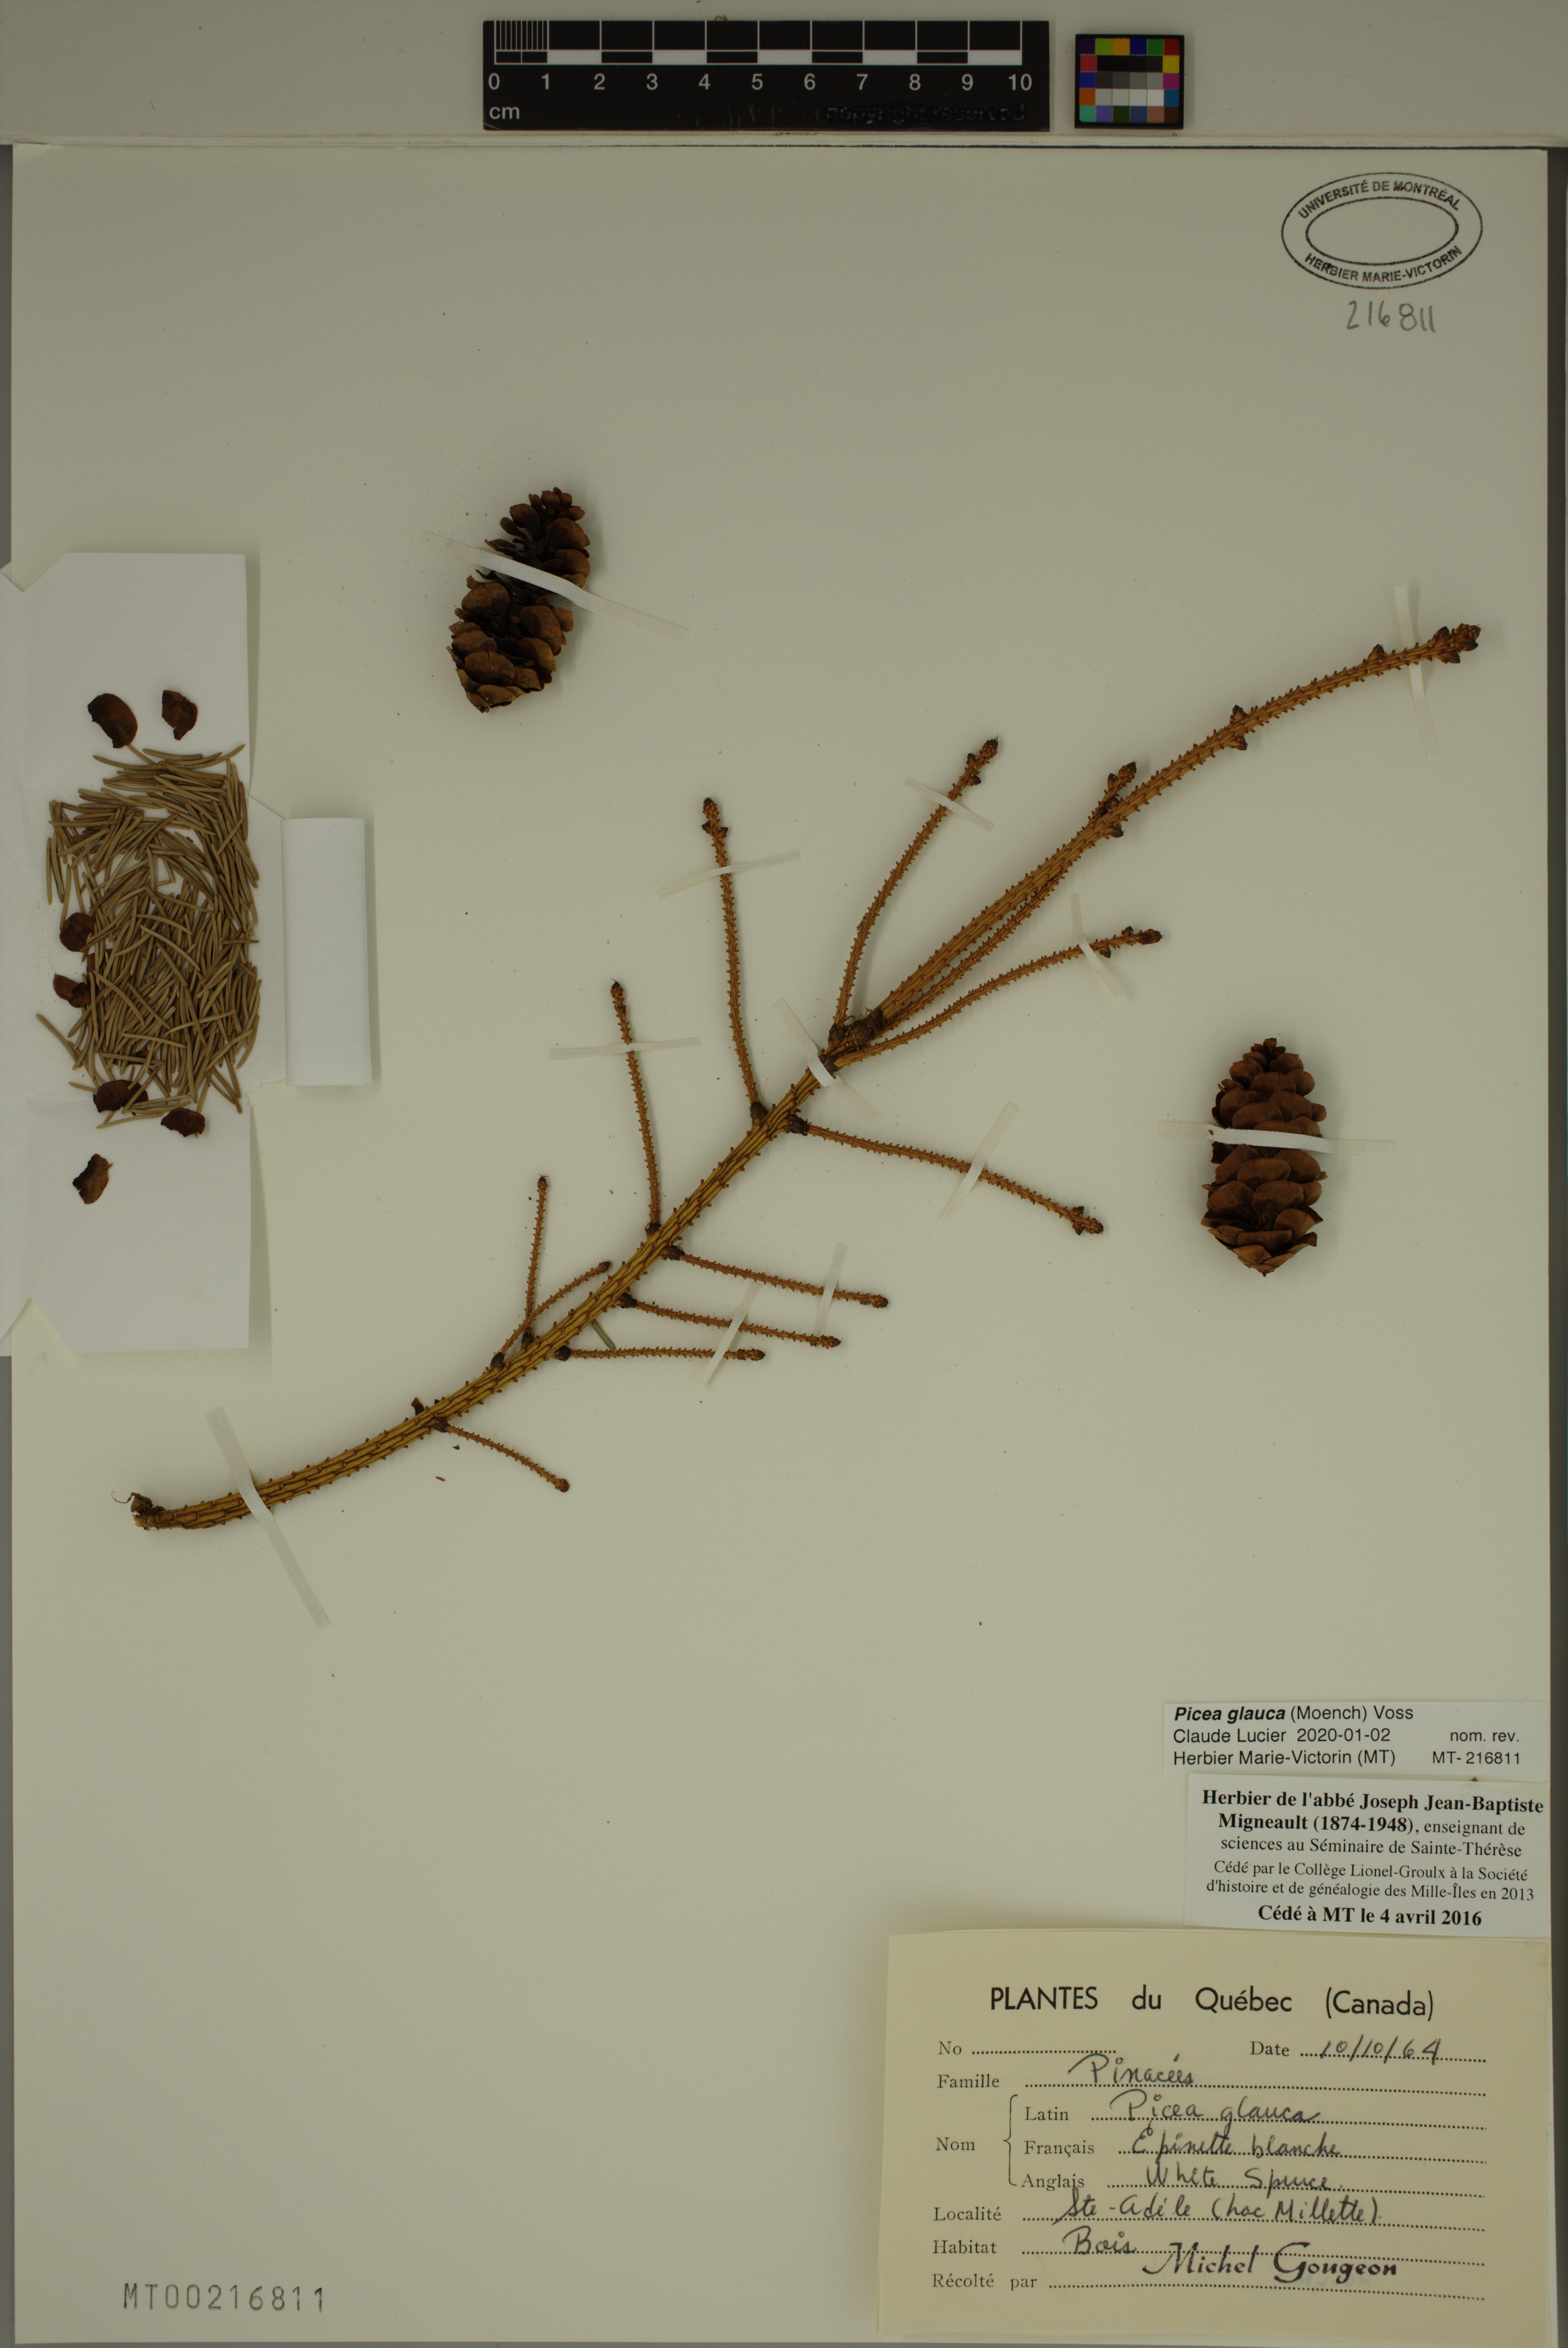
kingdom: Plantae
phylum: Tracheophyta
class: Pinopsida
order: Pinales
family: Pinaceae
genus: Picea
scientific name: Picea glauca
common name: White spruce
